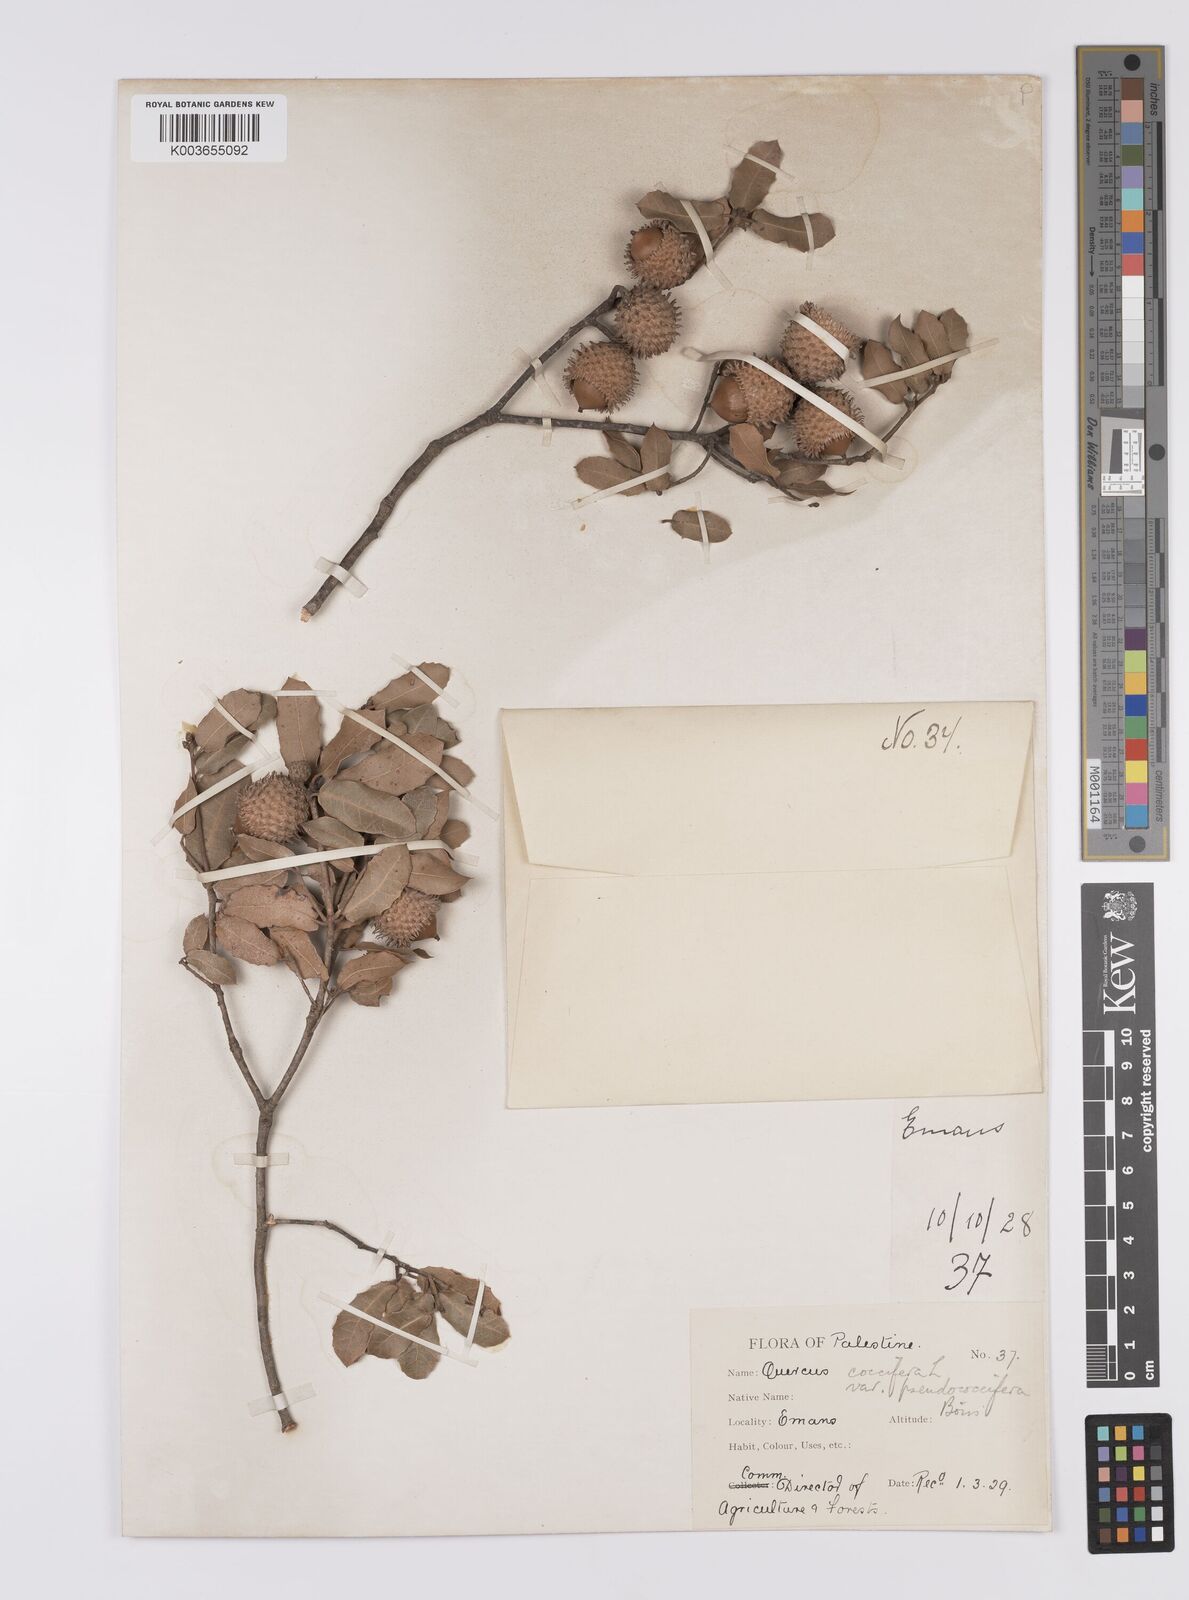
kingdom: Plantae
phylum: Tracheophyta
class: Magnoliopsida
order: Fagales
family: Fagaceae
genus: Quercus
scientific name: Quercus coccifera
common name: Kermes oak
